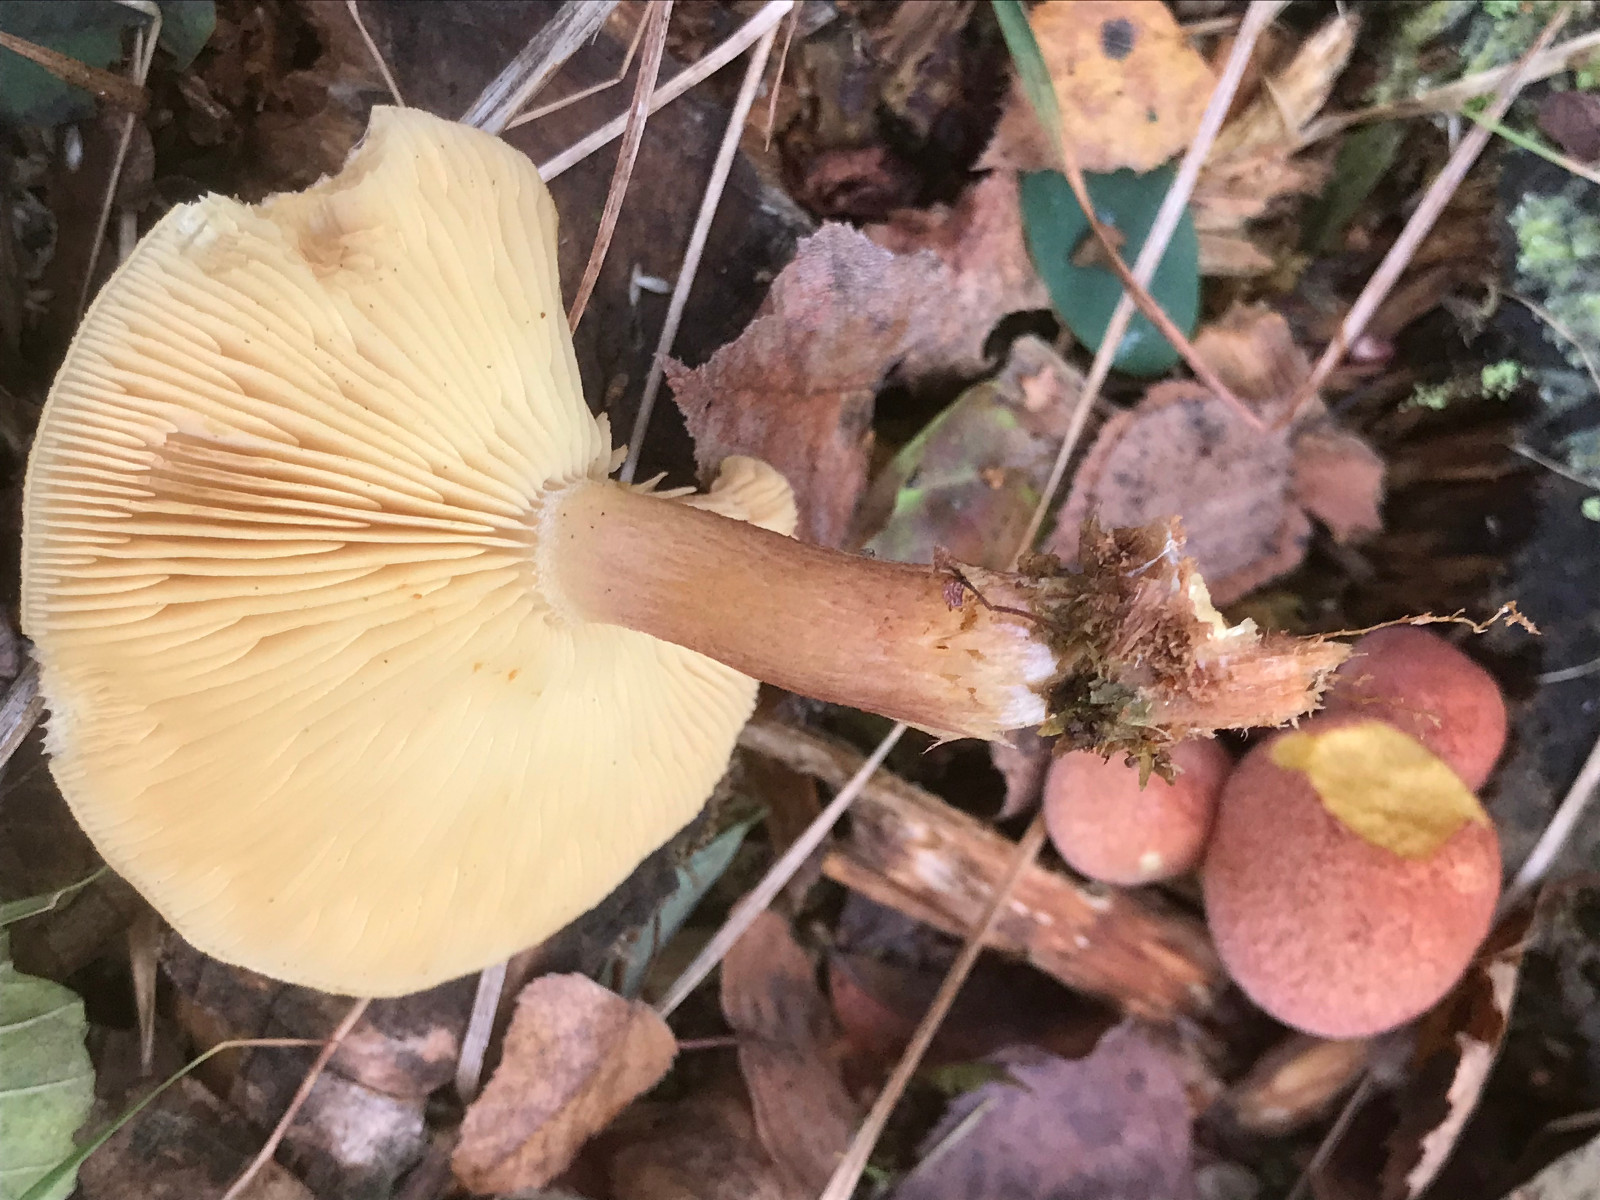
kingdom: Fungi
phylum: Basidiomycota
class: Agaricomycetes
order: Agaricales
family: Tricholomataceae
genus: Tricholomopsis
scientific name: Tricholomopsis rutilans
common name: purpur-væbnerhat
